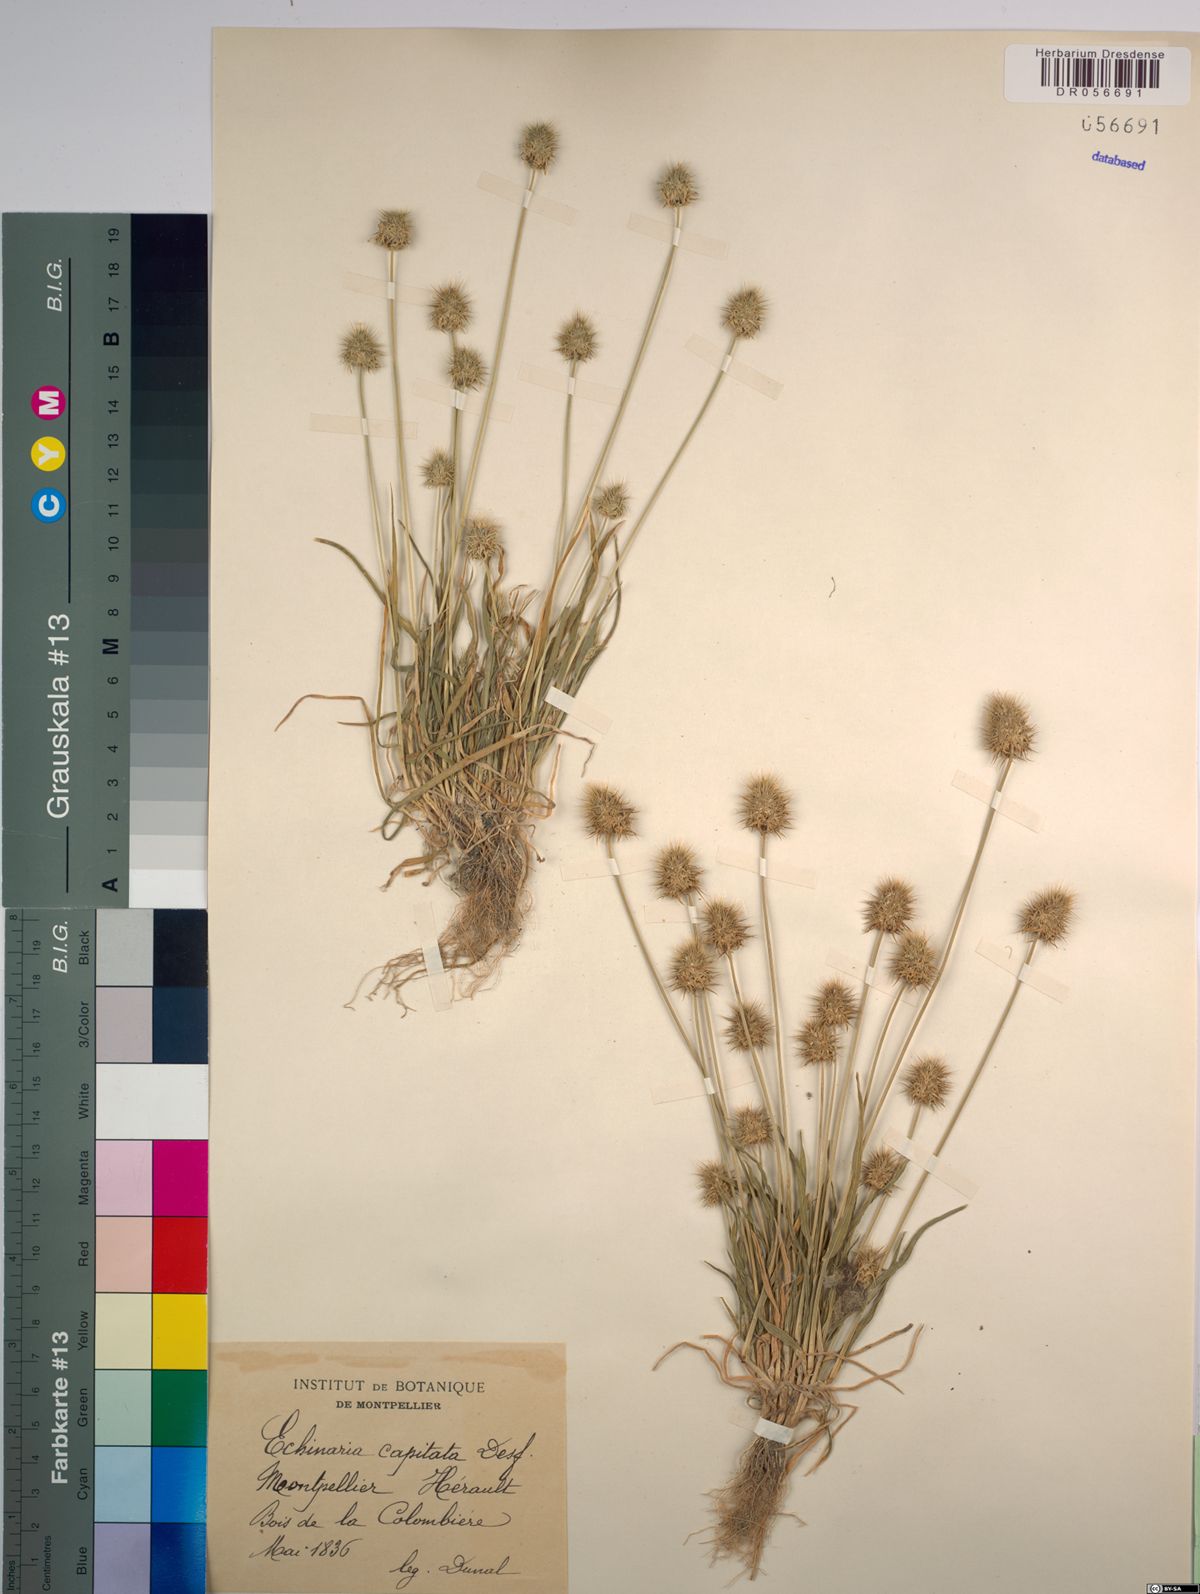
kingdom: Plantae
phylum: Tracheophyta
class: Liliopsida
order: Poales
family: Poaceae
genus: Echinaria
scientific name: Echinaria capitata
